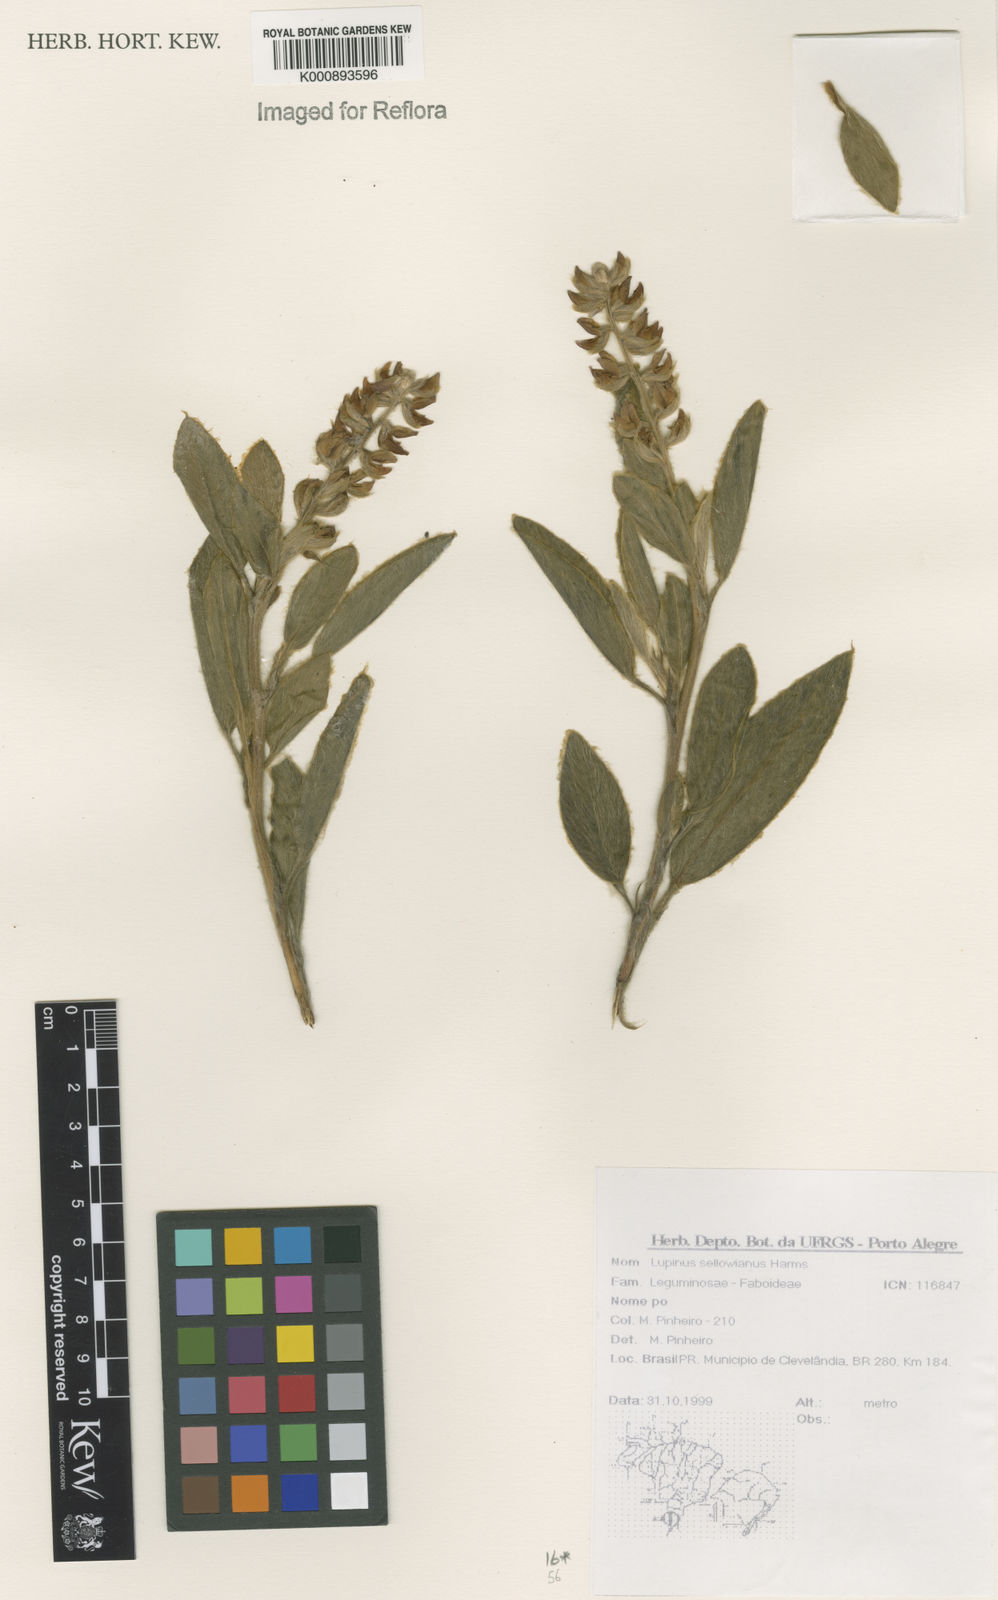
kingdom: Plantae
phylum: Tracheophyta
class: Magnoliopsida
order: Fabales
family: Fabaceae
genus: Lupinus
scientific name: Lupinus sellowianus
